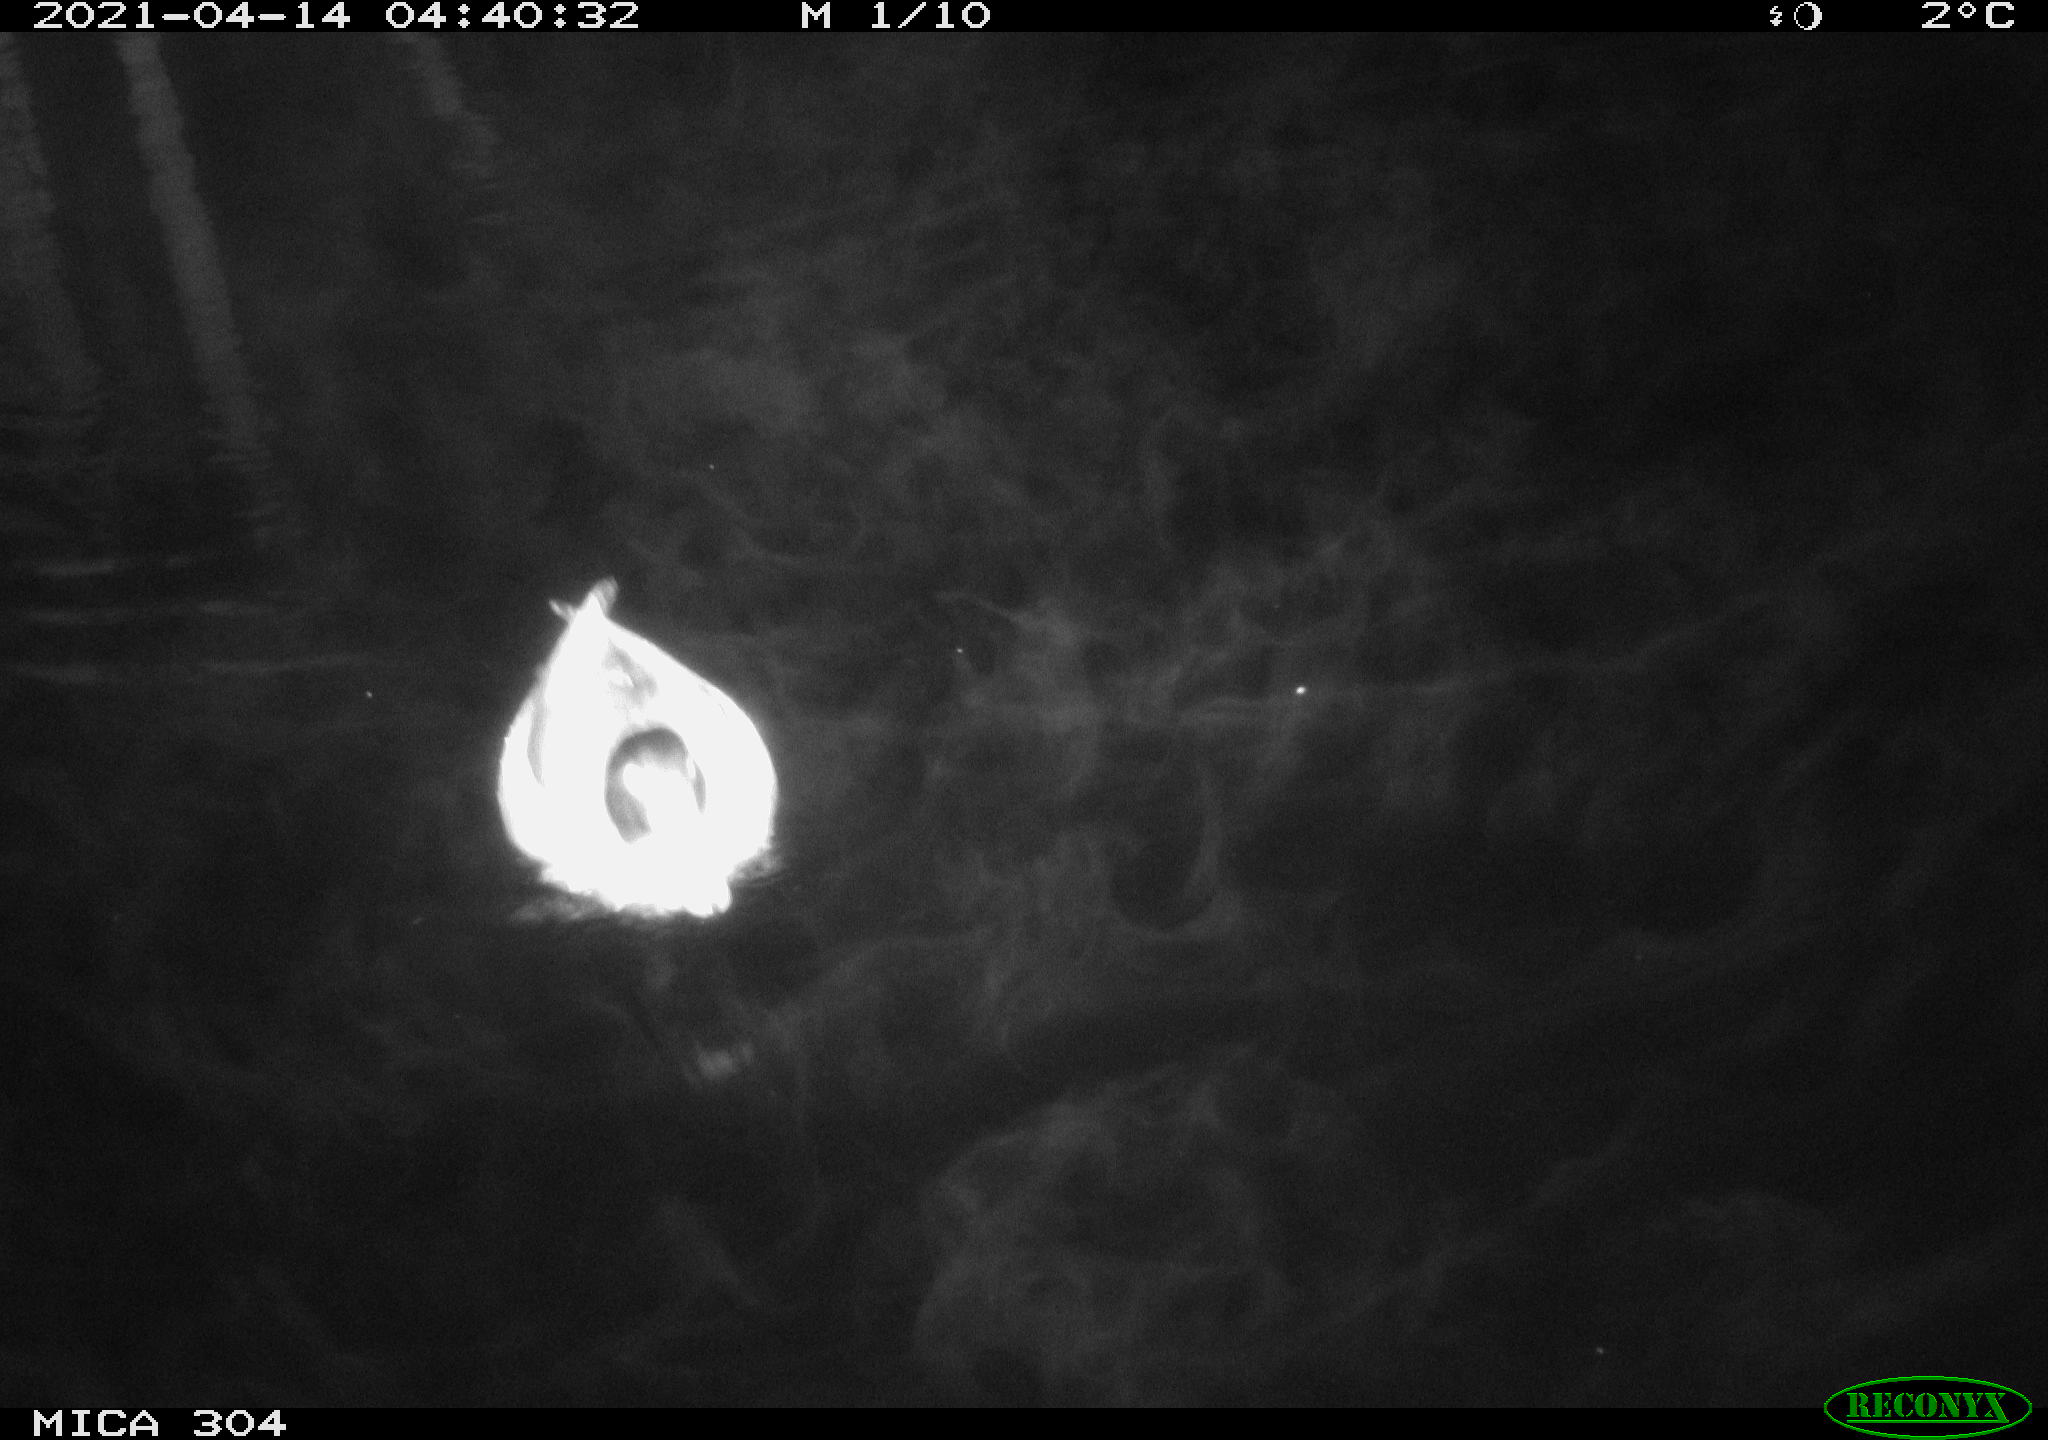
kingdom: Animalia
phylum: Chordata
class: Aves
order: Anseriformes
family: Anatidae
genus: Anas
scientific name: Anas
